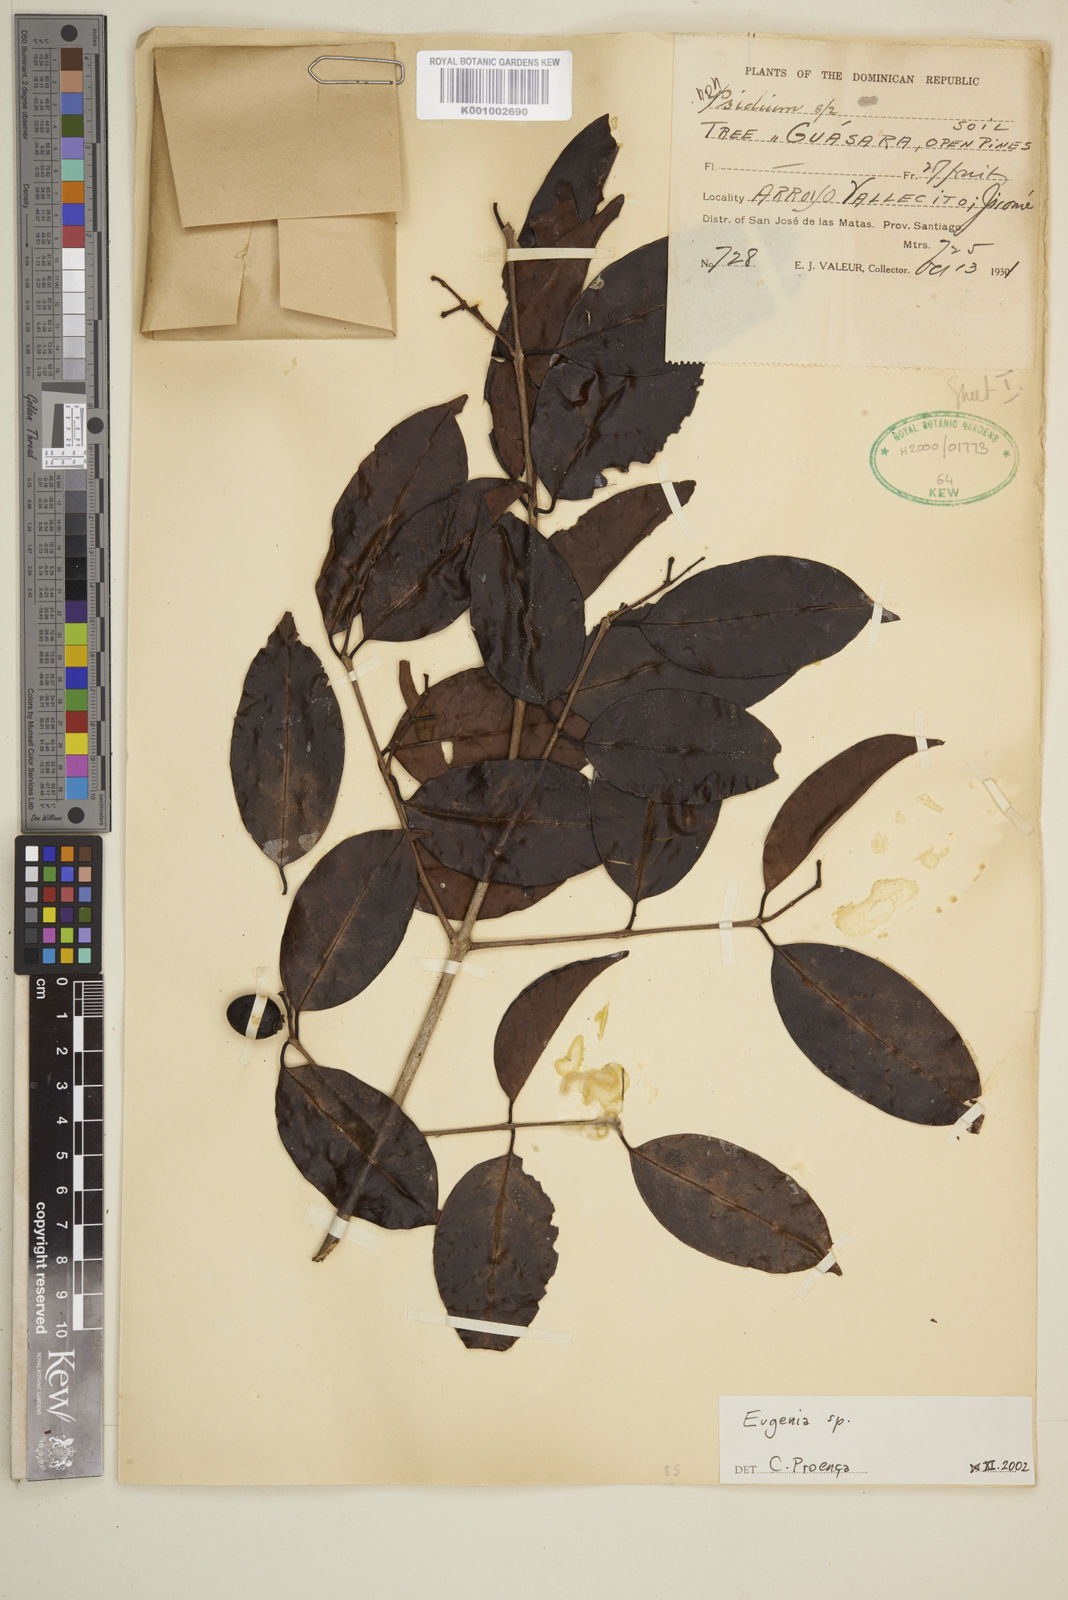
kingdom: Plantae
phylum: Tracheophyta
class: Magnoliopsida
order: Myrtales
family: Myrtaceae
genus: Eugenia
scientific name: Eugenia
